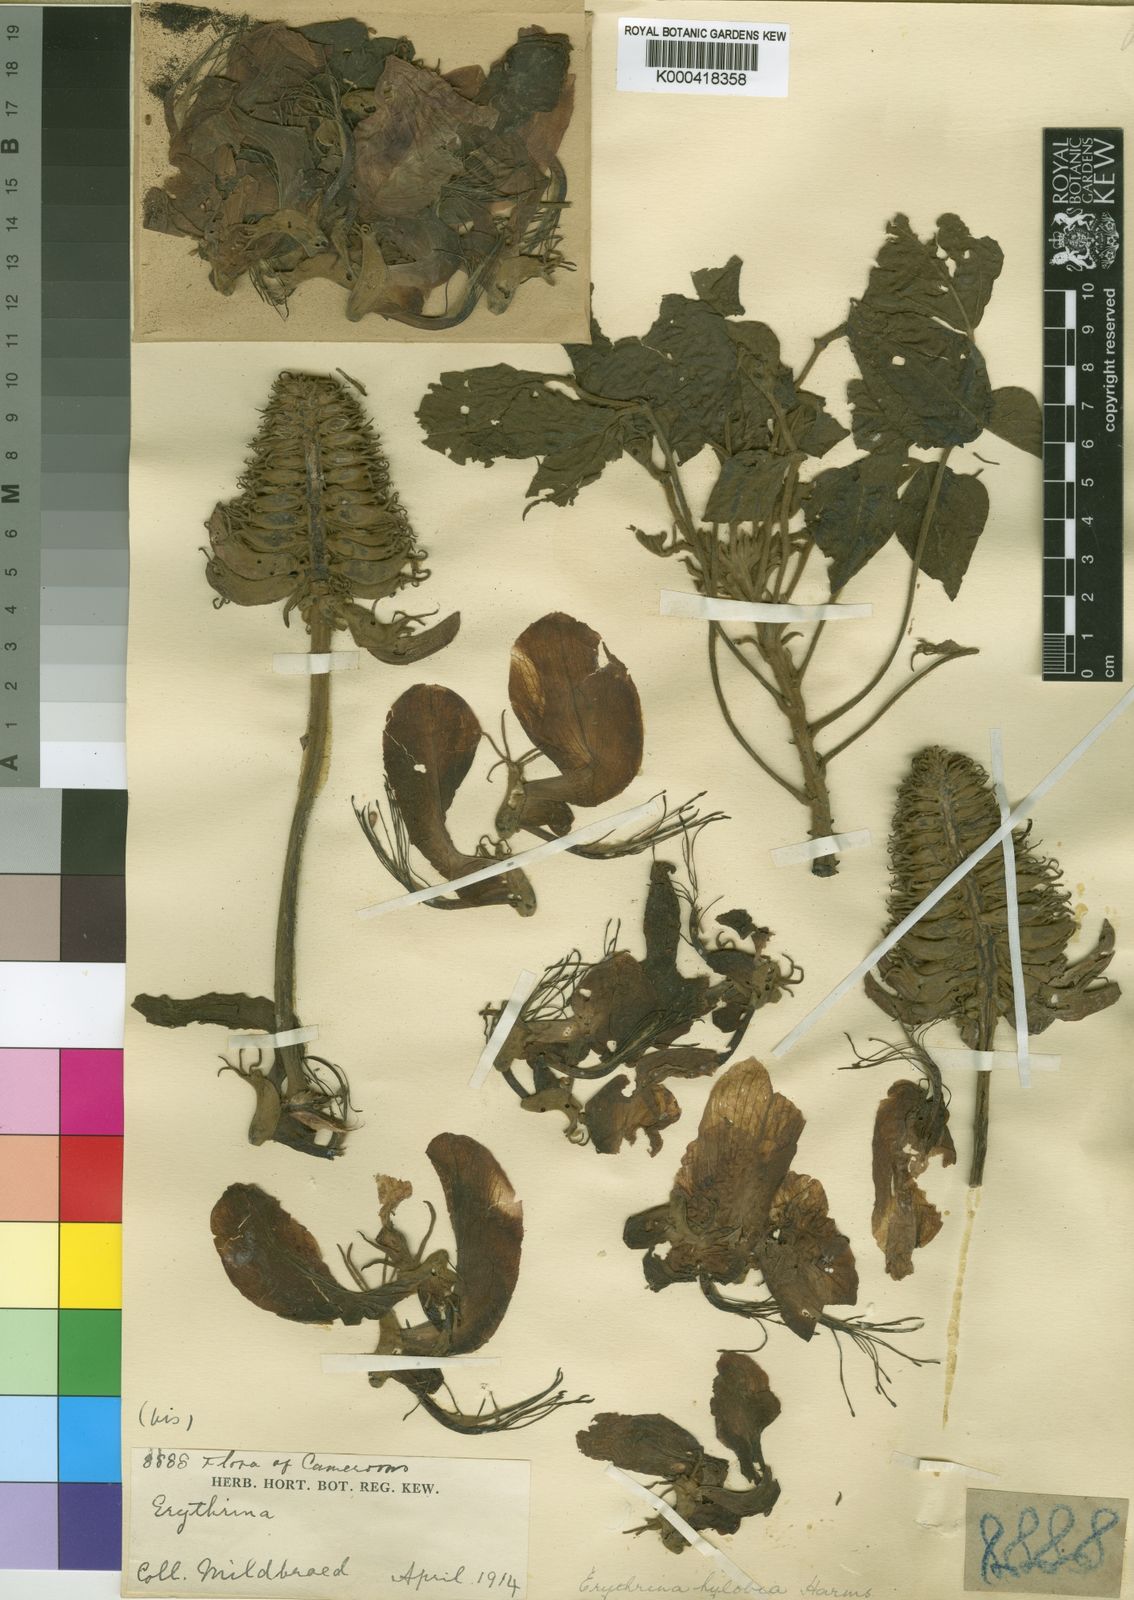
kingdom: Plantae
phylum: Tracheophyta
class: Magnoliopsida
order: Fabales
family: Fabaceae
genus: Erythrina
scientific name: Erythrina droogmansiana
